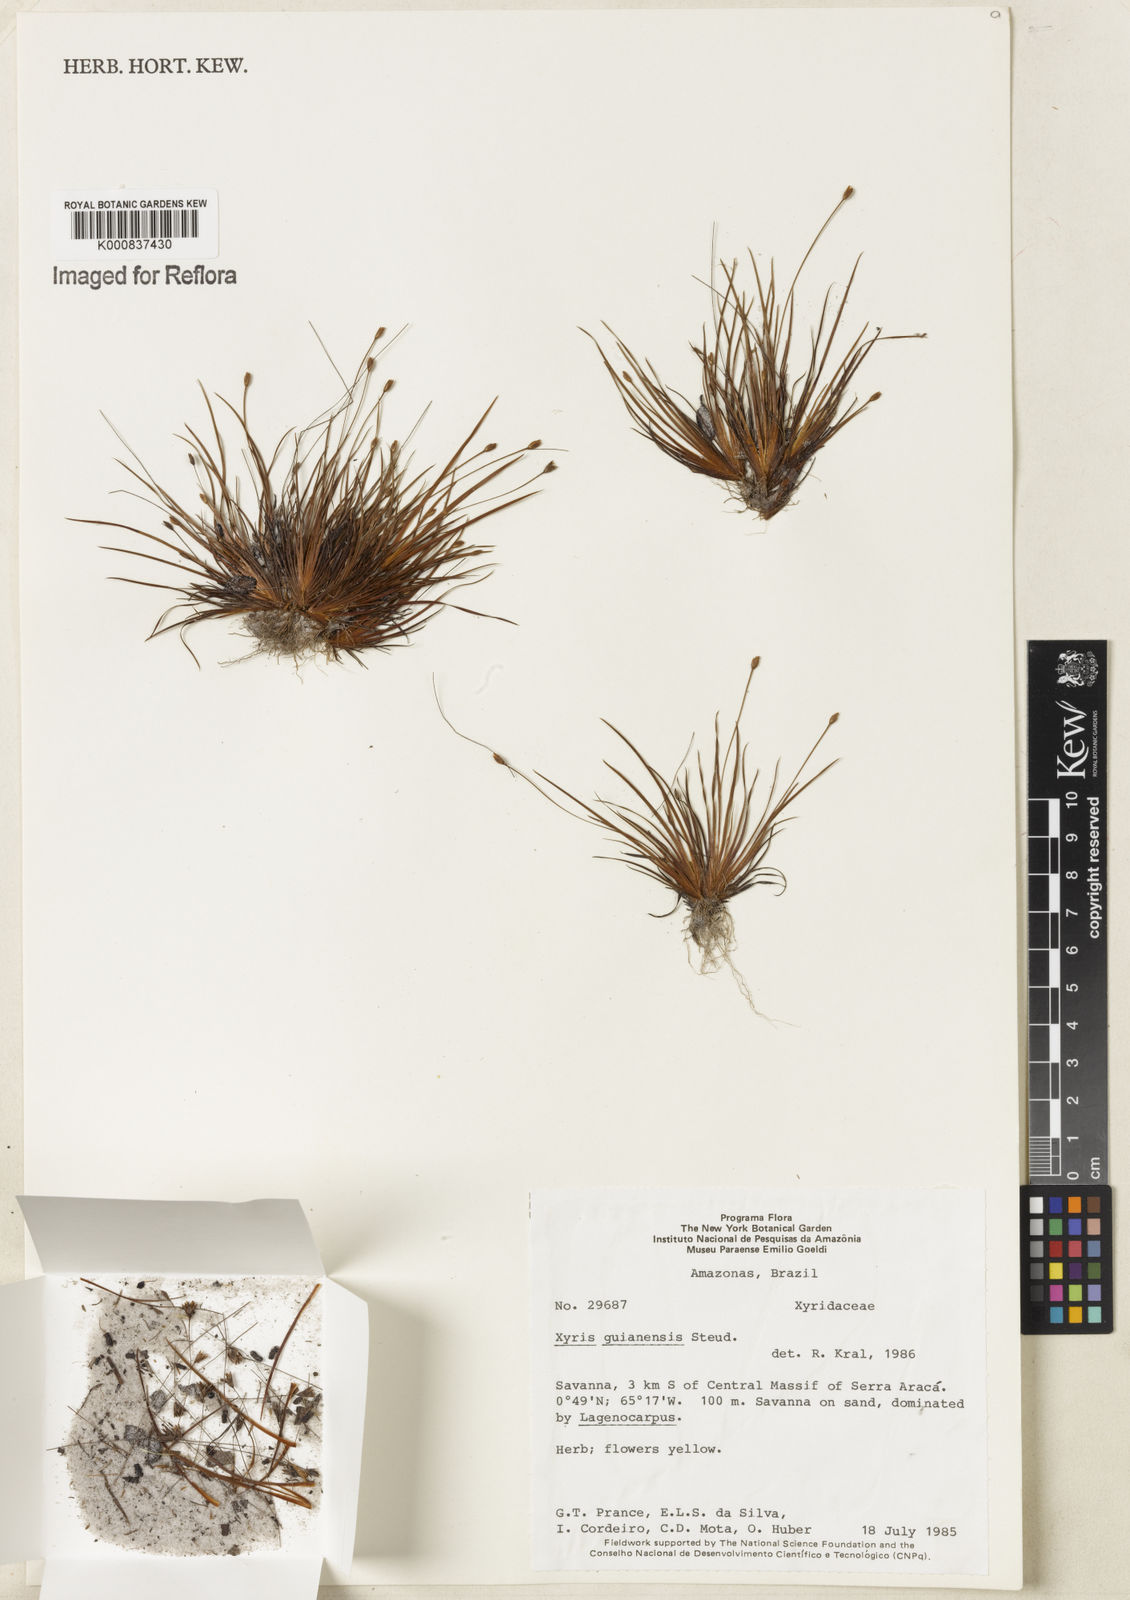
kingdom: Plantae
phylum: Tracheophyta
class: Liliopsida
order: Poales
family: Xyridaceae
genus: Xyris
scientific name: Xyris guianensis
